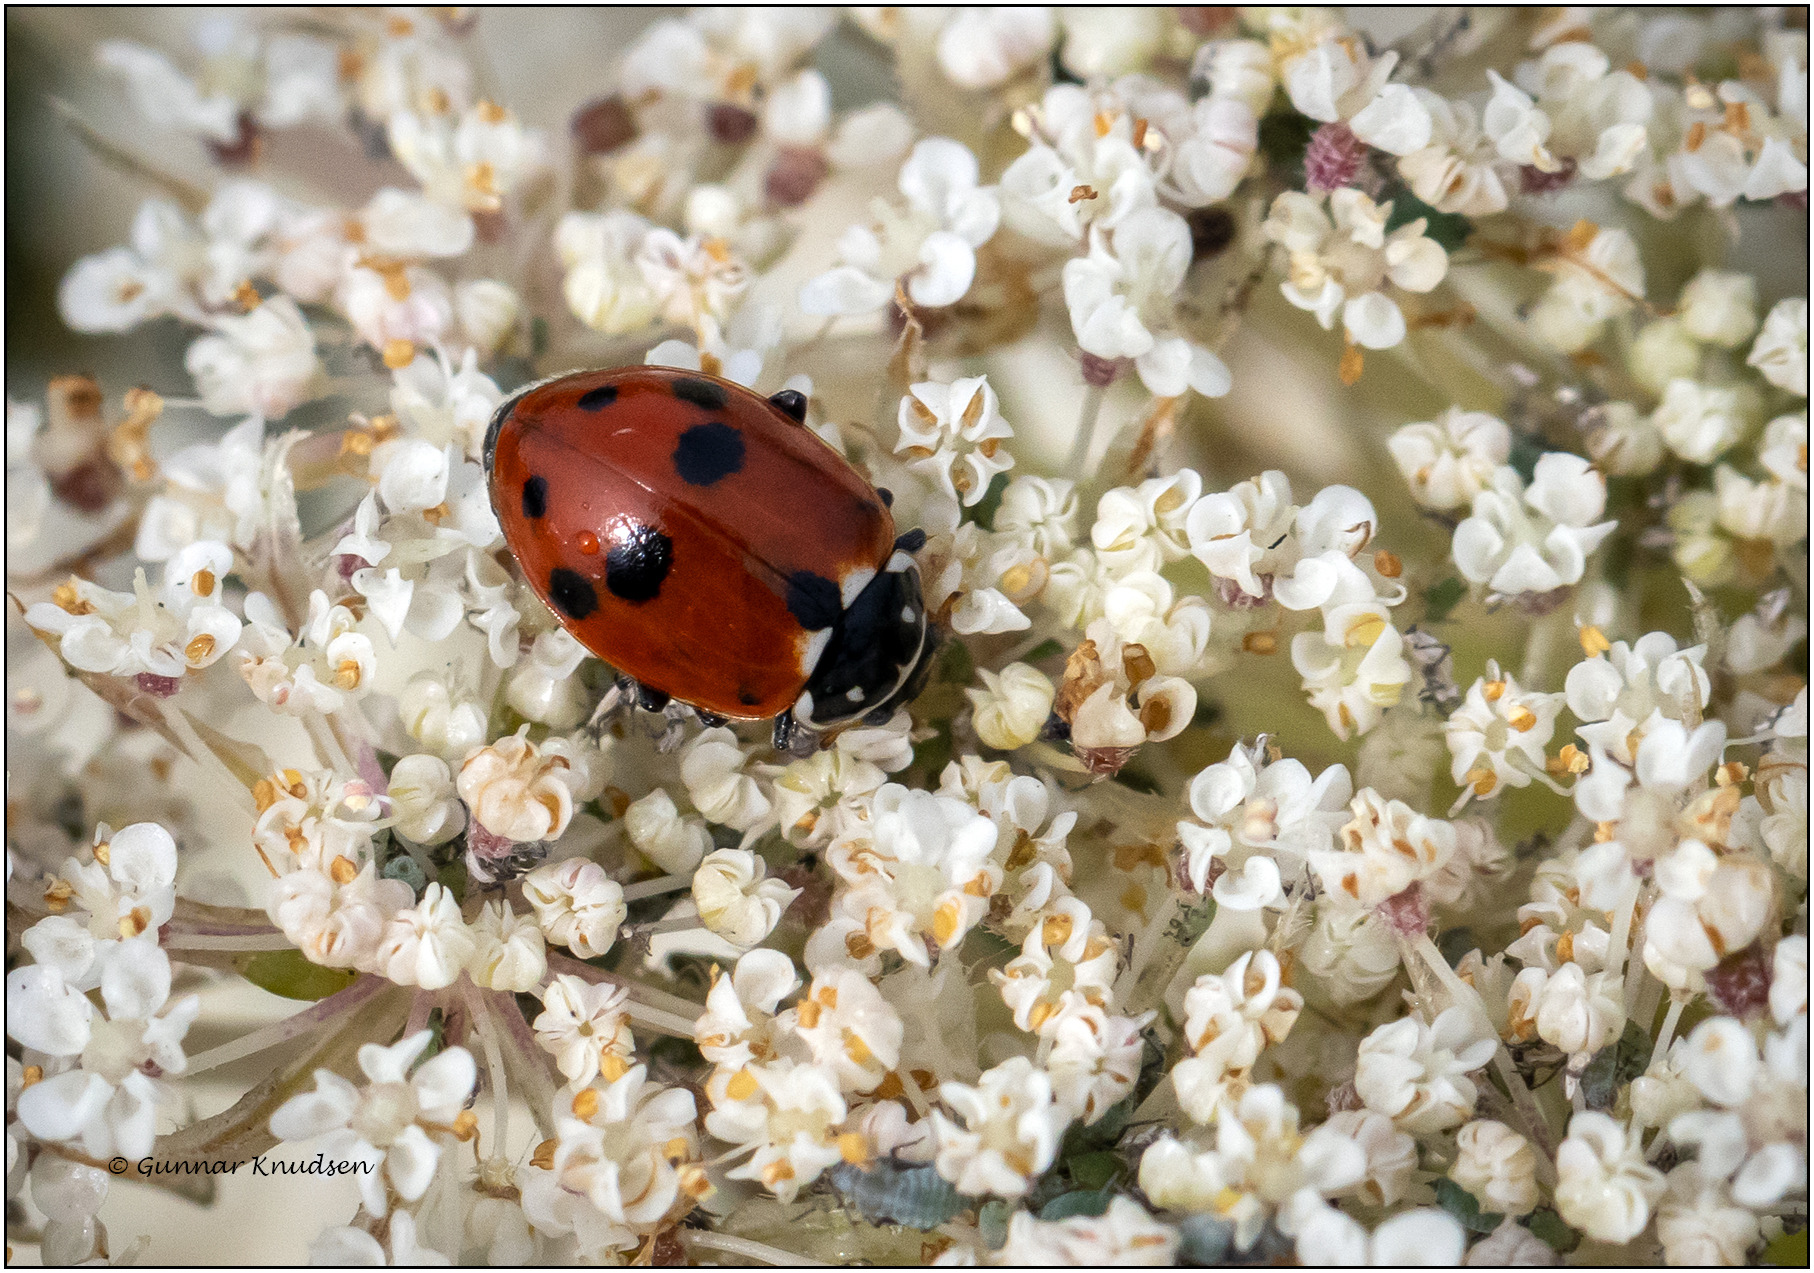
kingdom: Animalia
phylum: Arthropoda
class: Insecta
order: Coleoptera
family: Coccinellidae
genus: Hippodamia
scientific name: Hippodamia variegata
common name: Adonis' mariehøne
